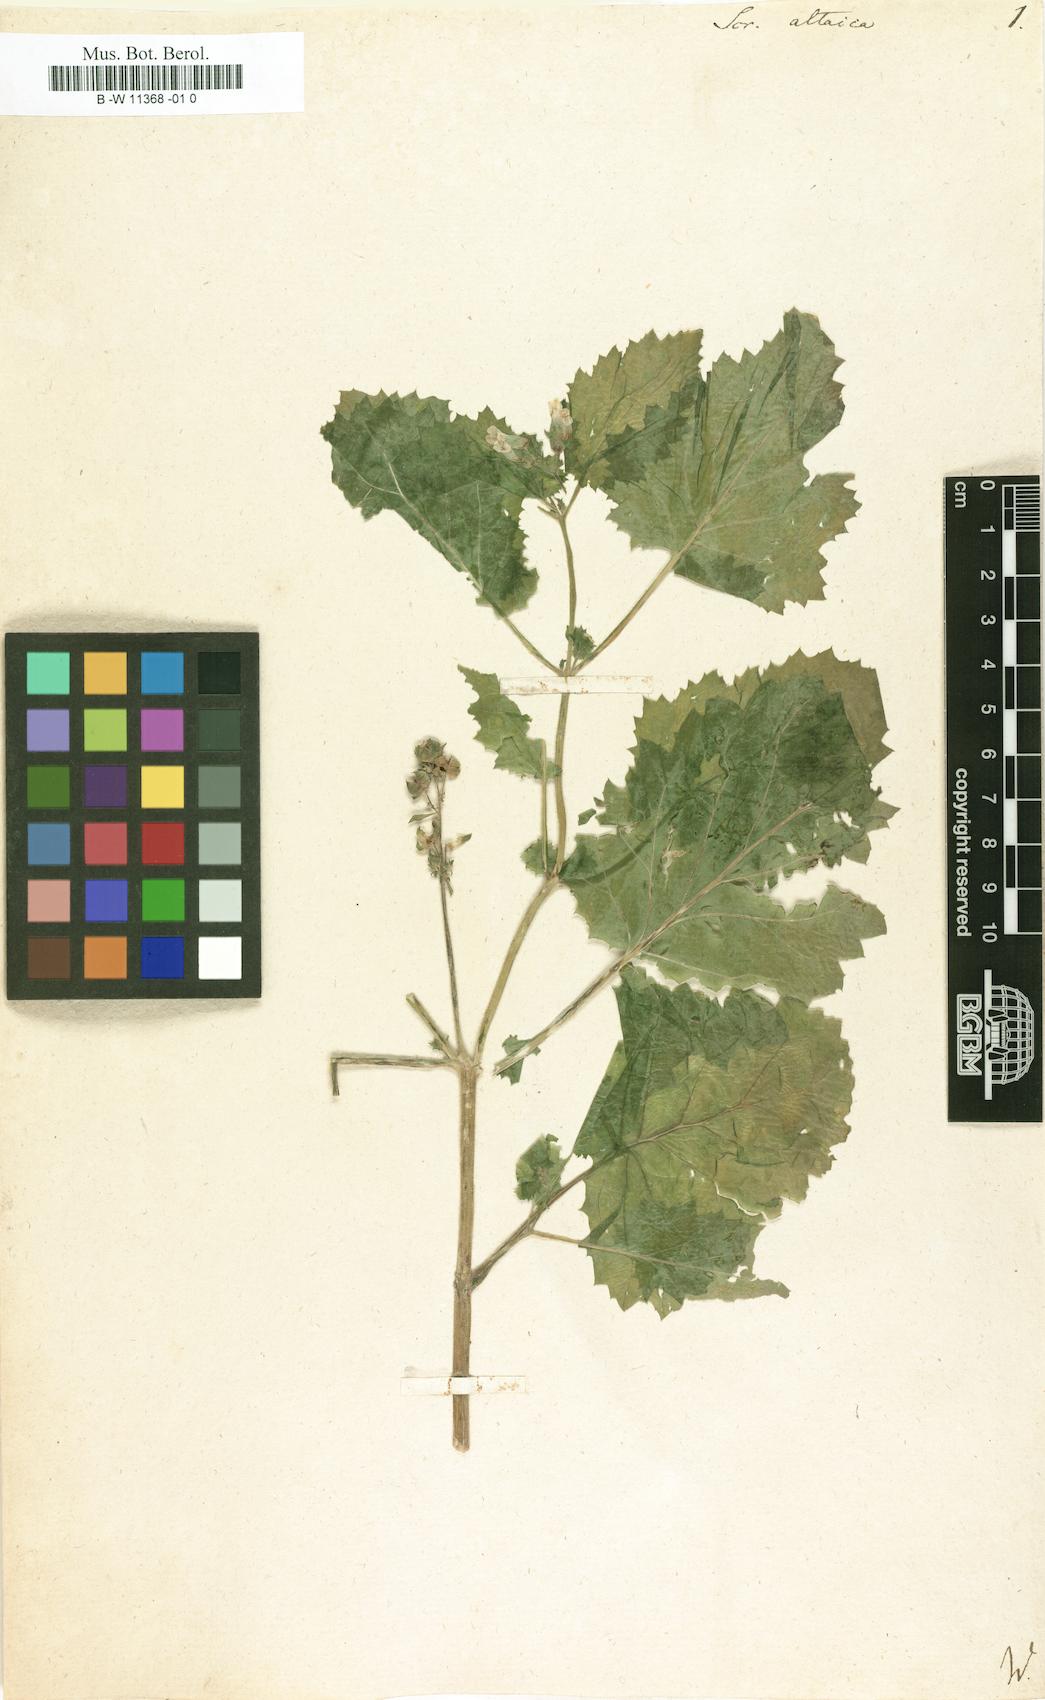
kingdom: Plantae
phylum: Tracheophyta
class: Magnoliopsida
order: Lamiales
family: Scrophulariaceae
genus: Scrophularia
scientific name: Scrophularia altaica
